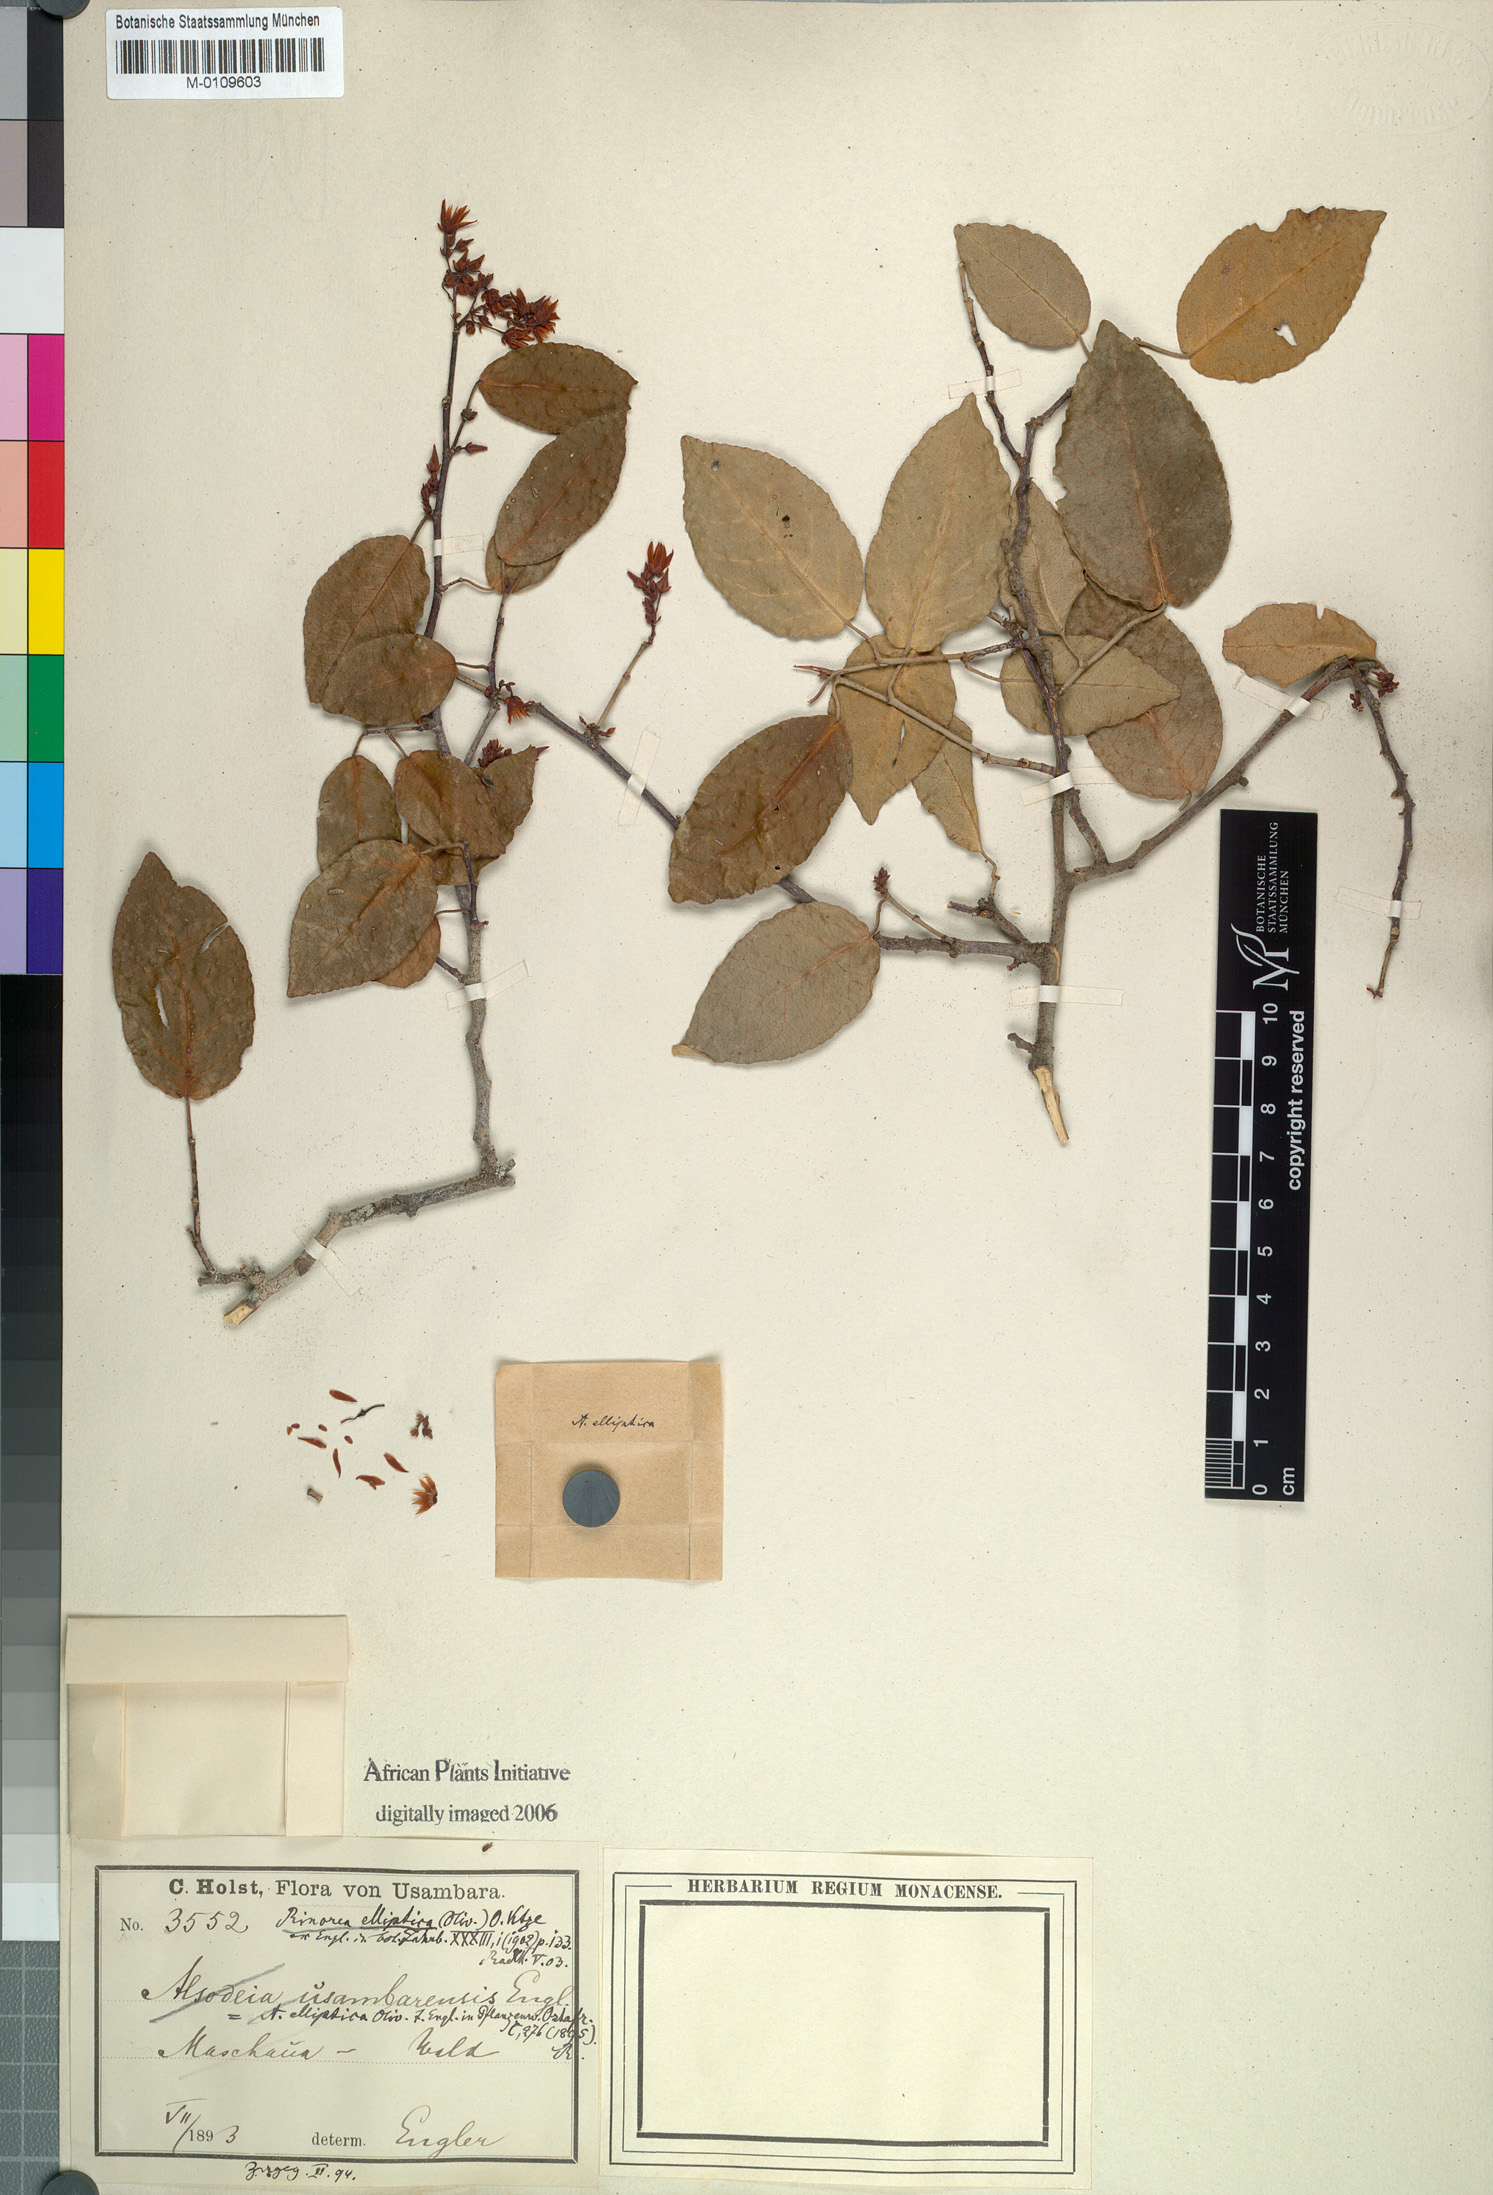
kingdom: Plantae
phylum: Tracheophyta
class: Magnoliopsida
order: Malpighiales
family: Violaceae
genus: Rinorea
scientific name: Rinorea elliptica
